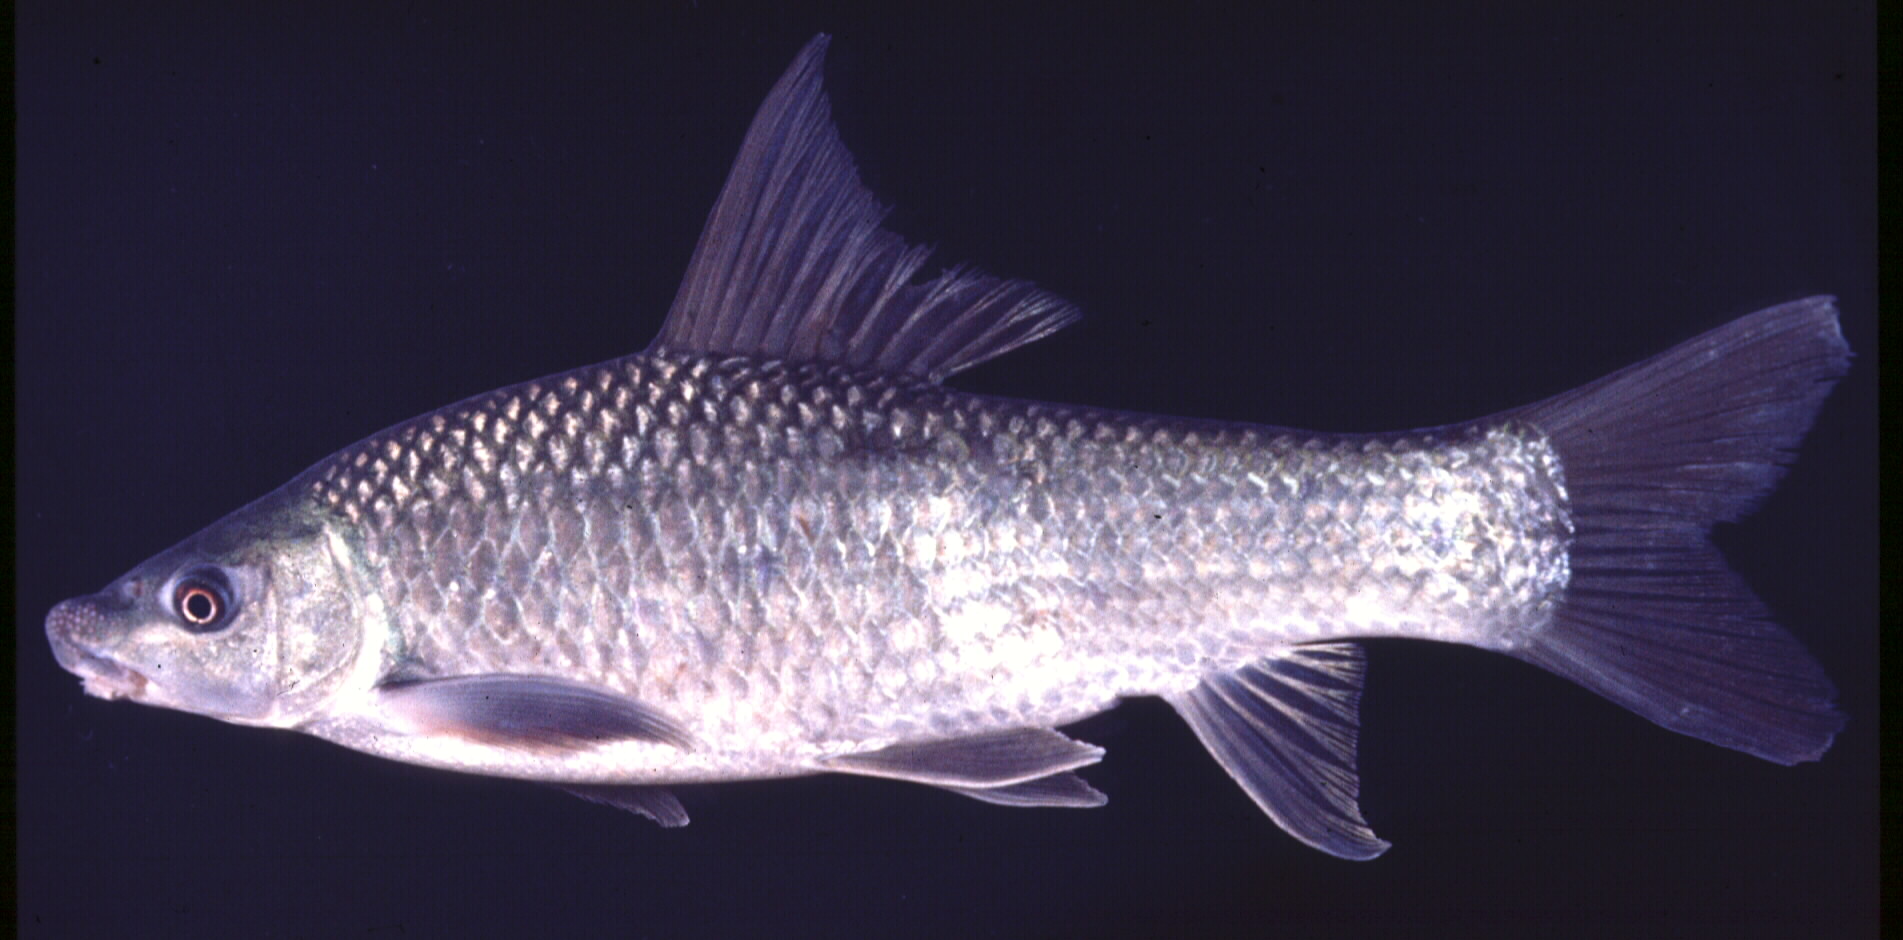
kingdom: Animalia
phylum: Chordata
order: Cypriniformes
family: Cyprinidae
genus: Labeo
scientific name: Labeo molybdinus
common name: Leaden labeo
